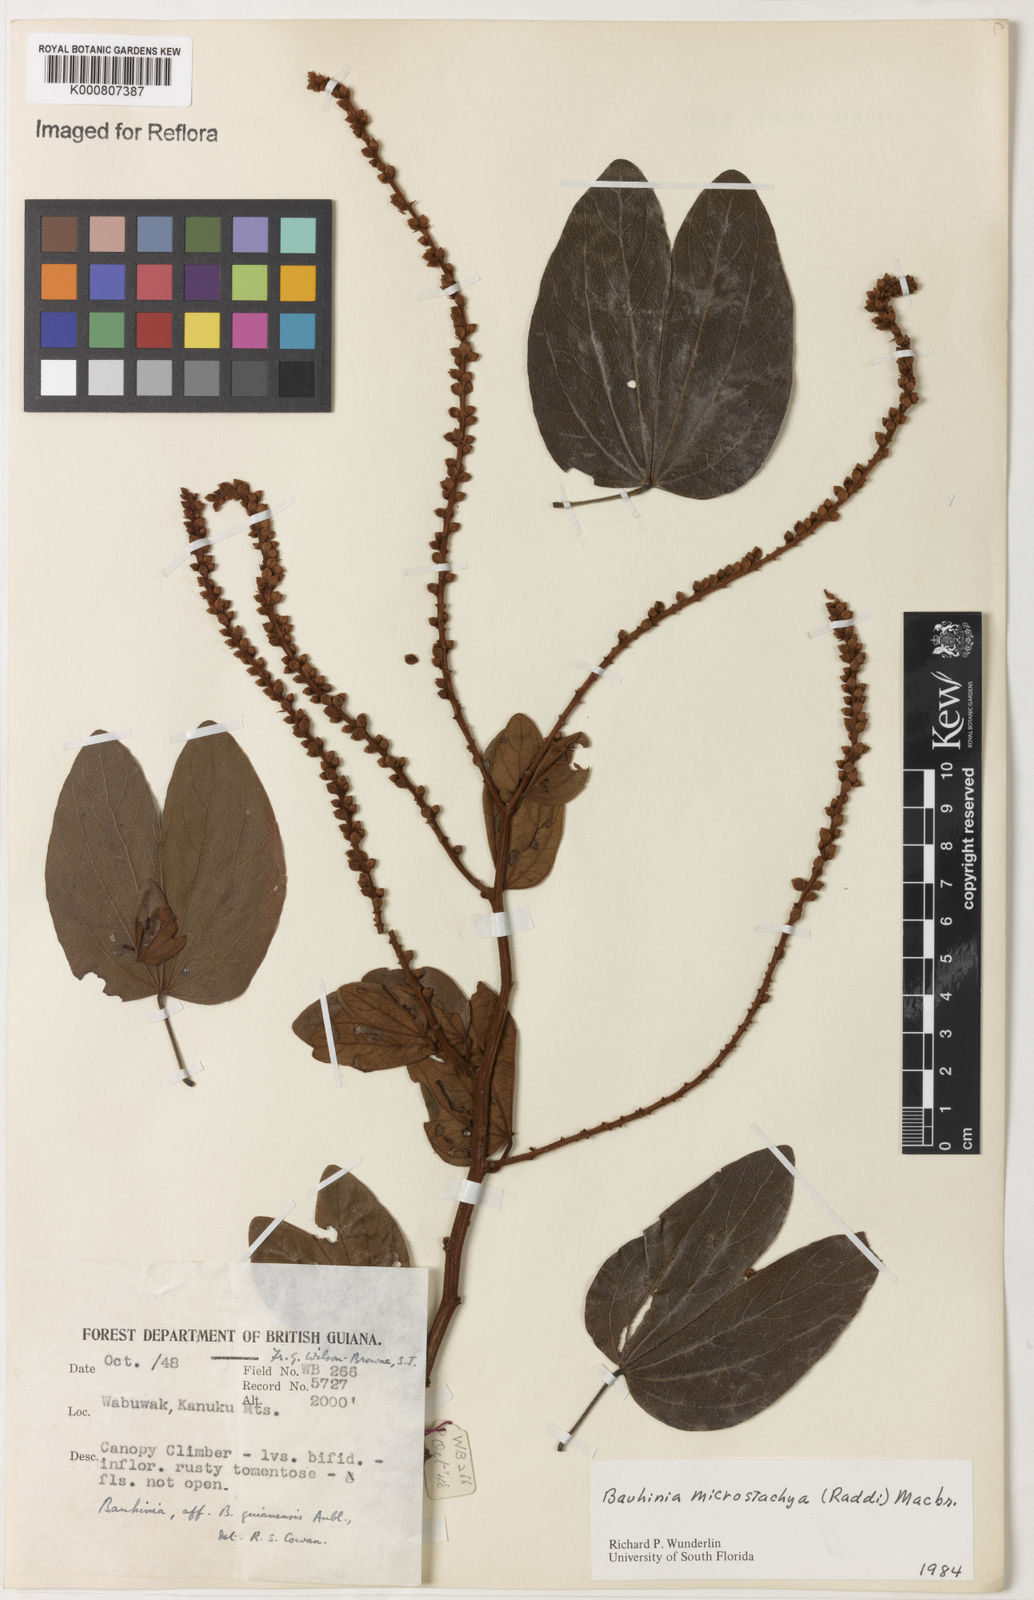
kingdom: Plantae
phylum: Tracheophyta
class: Magnoliopsida
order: Fabales
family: Fabaceae
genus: Schnella
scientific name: Schnella microstachya
